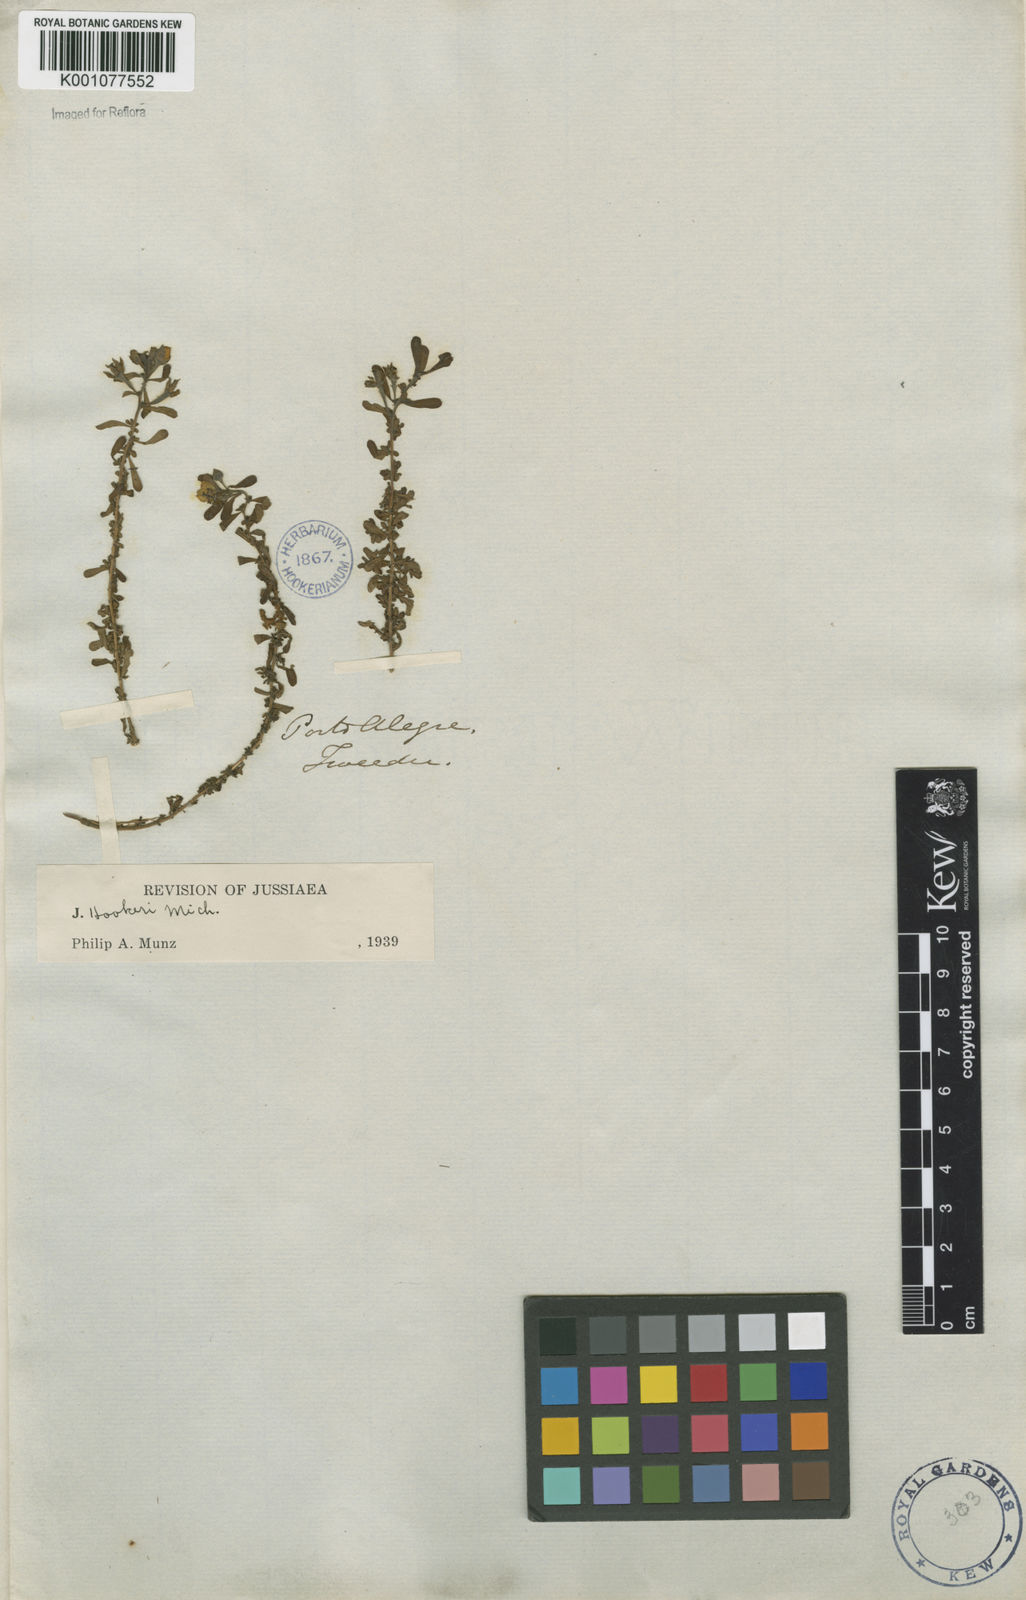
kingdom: Plantae
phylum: Tracheophyta
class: Magnoliopsida
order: Myrtales
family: Onagraceae
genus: Ludwigia
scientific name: Ludwigia grandiflora
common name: Water primrose
